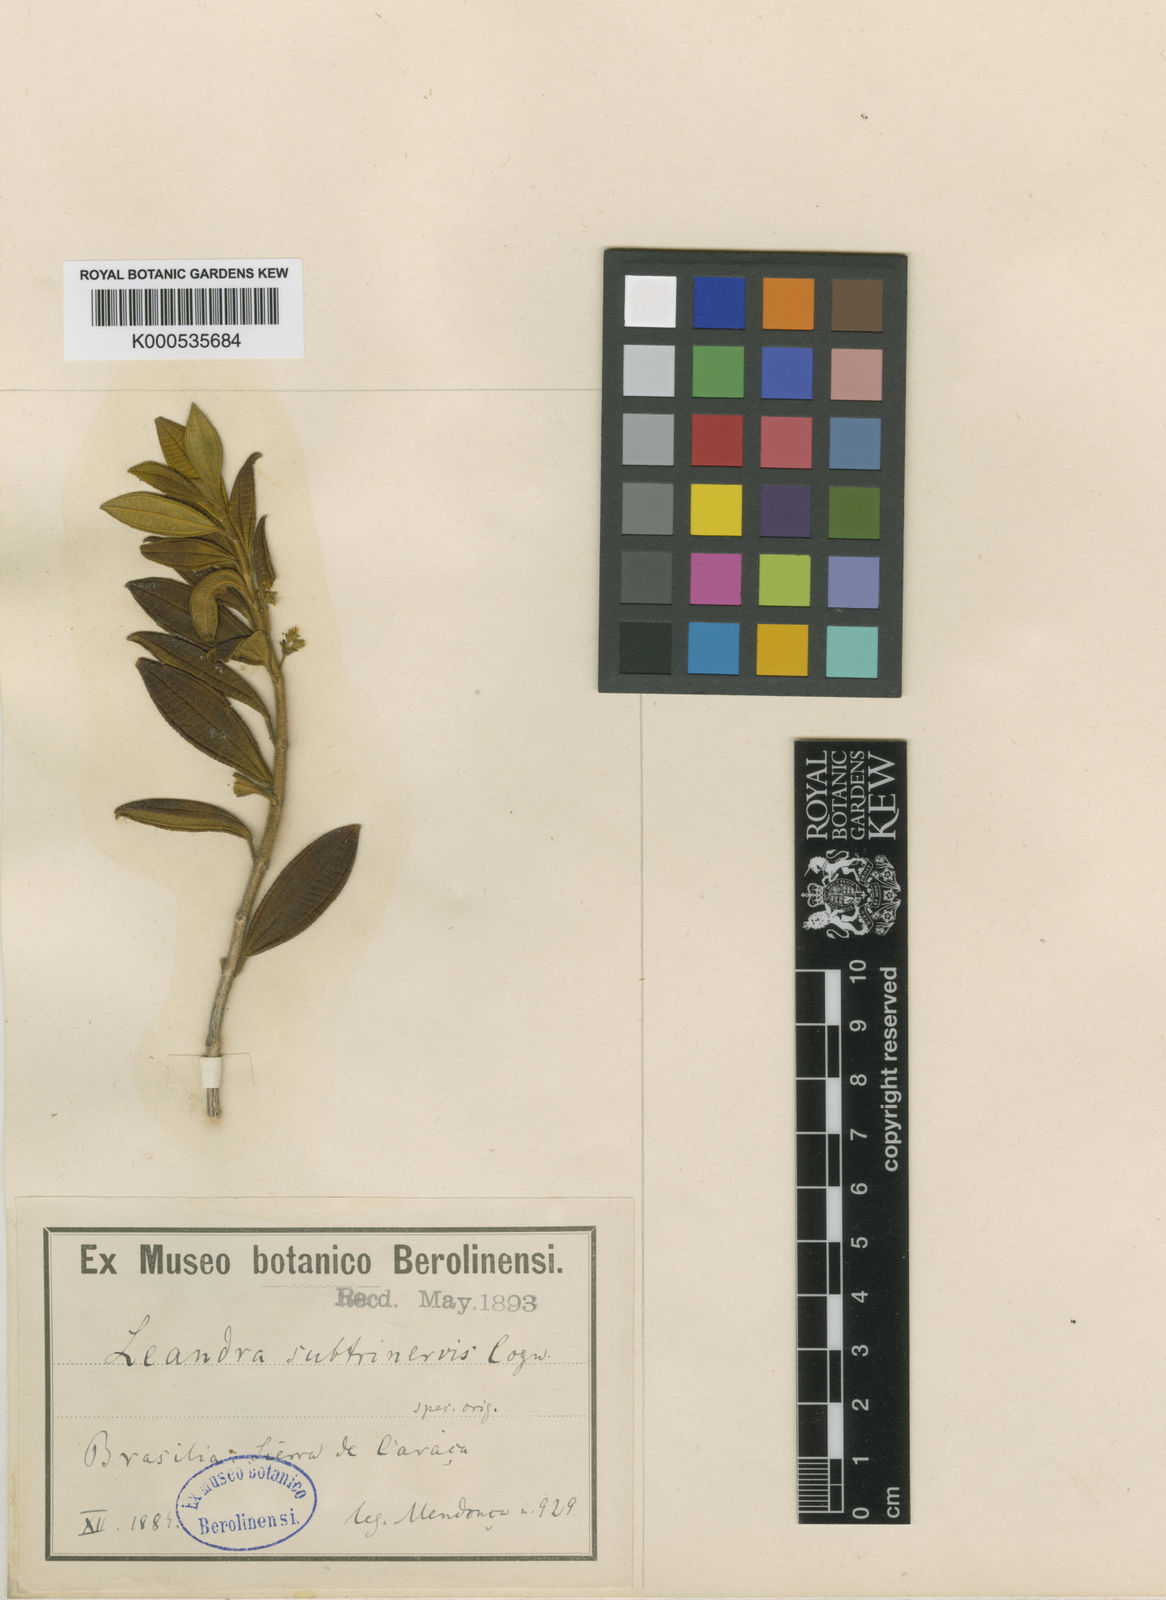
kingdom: Plantae
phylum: Tracheophyta
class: Magnoliopsida
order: Myrtales
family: Melastomataceae
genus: Miconia
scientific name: Miconia subtrinervis
